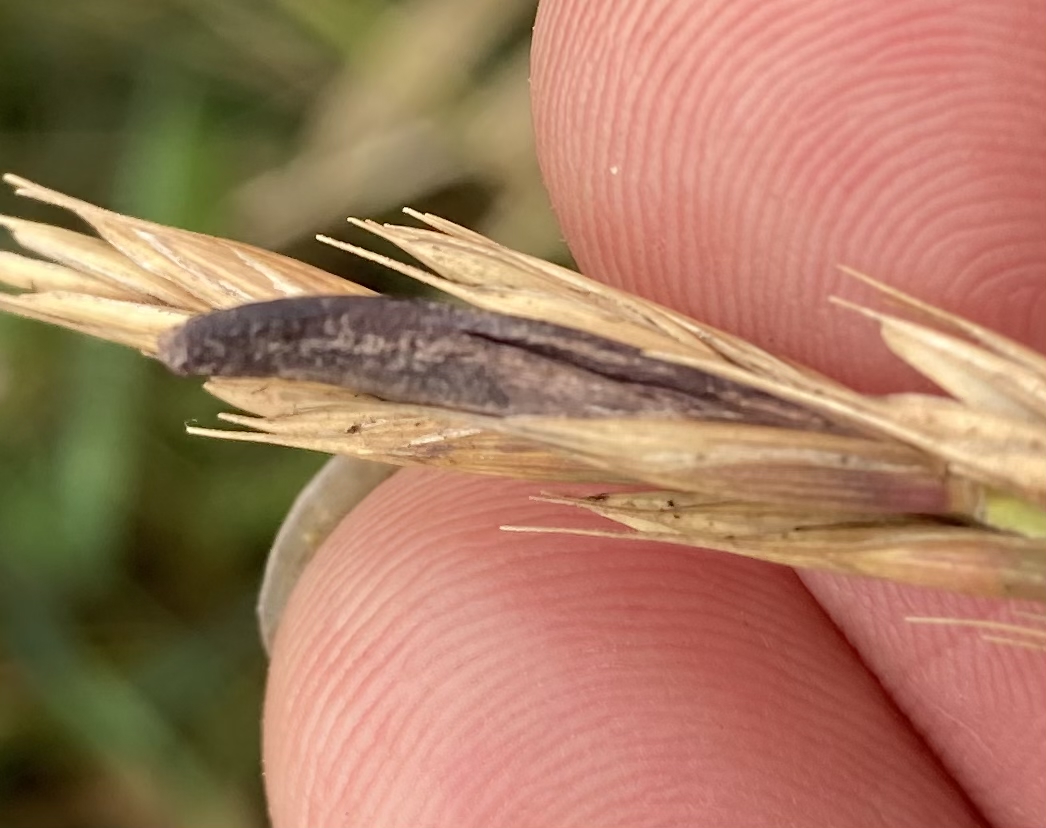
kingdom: Fungi
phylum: Ascomycota
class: Sordariomycetes
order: Hypocreales
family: Clavicipitaceae
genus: Claviceps
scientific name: Claviceps purpurea
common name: almindelig meldrøjer
